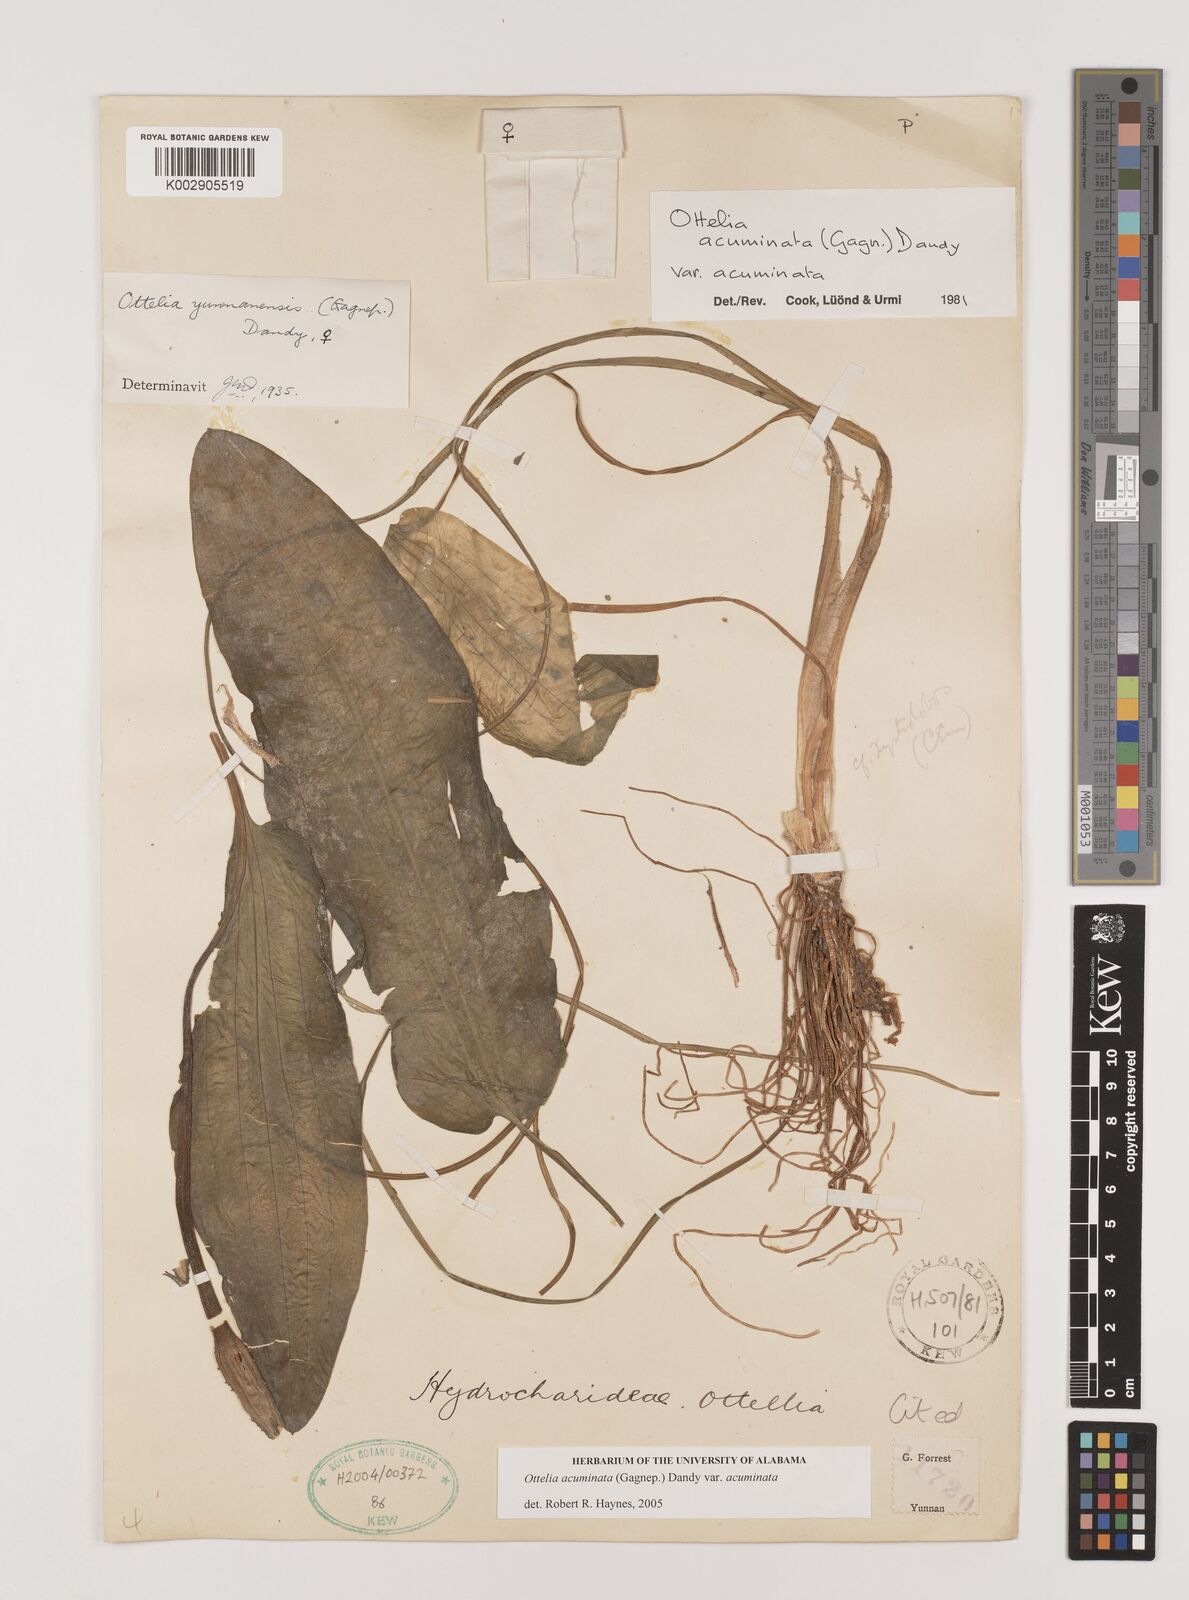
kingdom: Plantae
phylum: Tracheophyta
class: Liliopsida
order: Alismatales
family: Hydrocharitaceae
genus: Ottelia
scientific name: Ottelia acuminata
